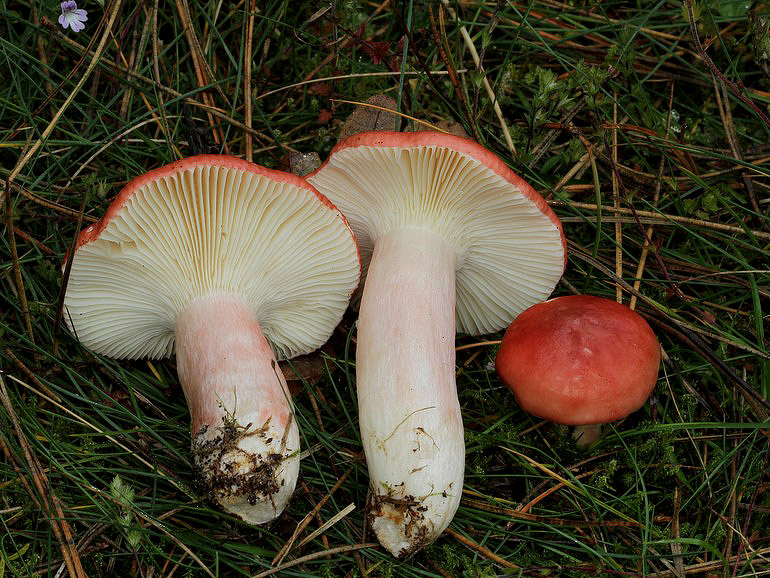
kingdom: Fungi
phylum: Basidiomycota
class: Agaricomycetes
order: Russulales
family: Russulaceae
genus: Russula
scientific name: Russula paludosa
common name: prægtig skørhat
